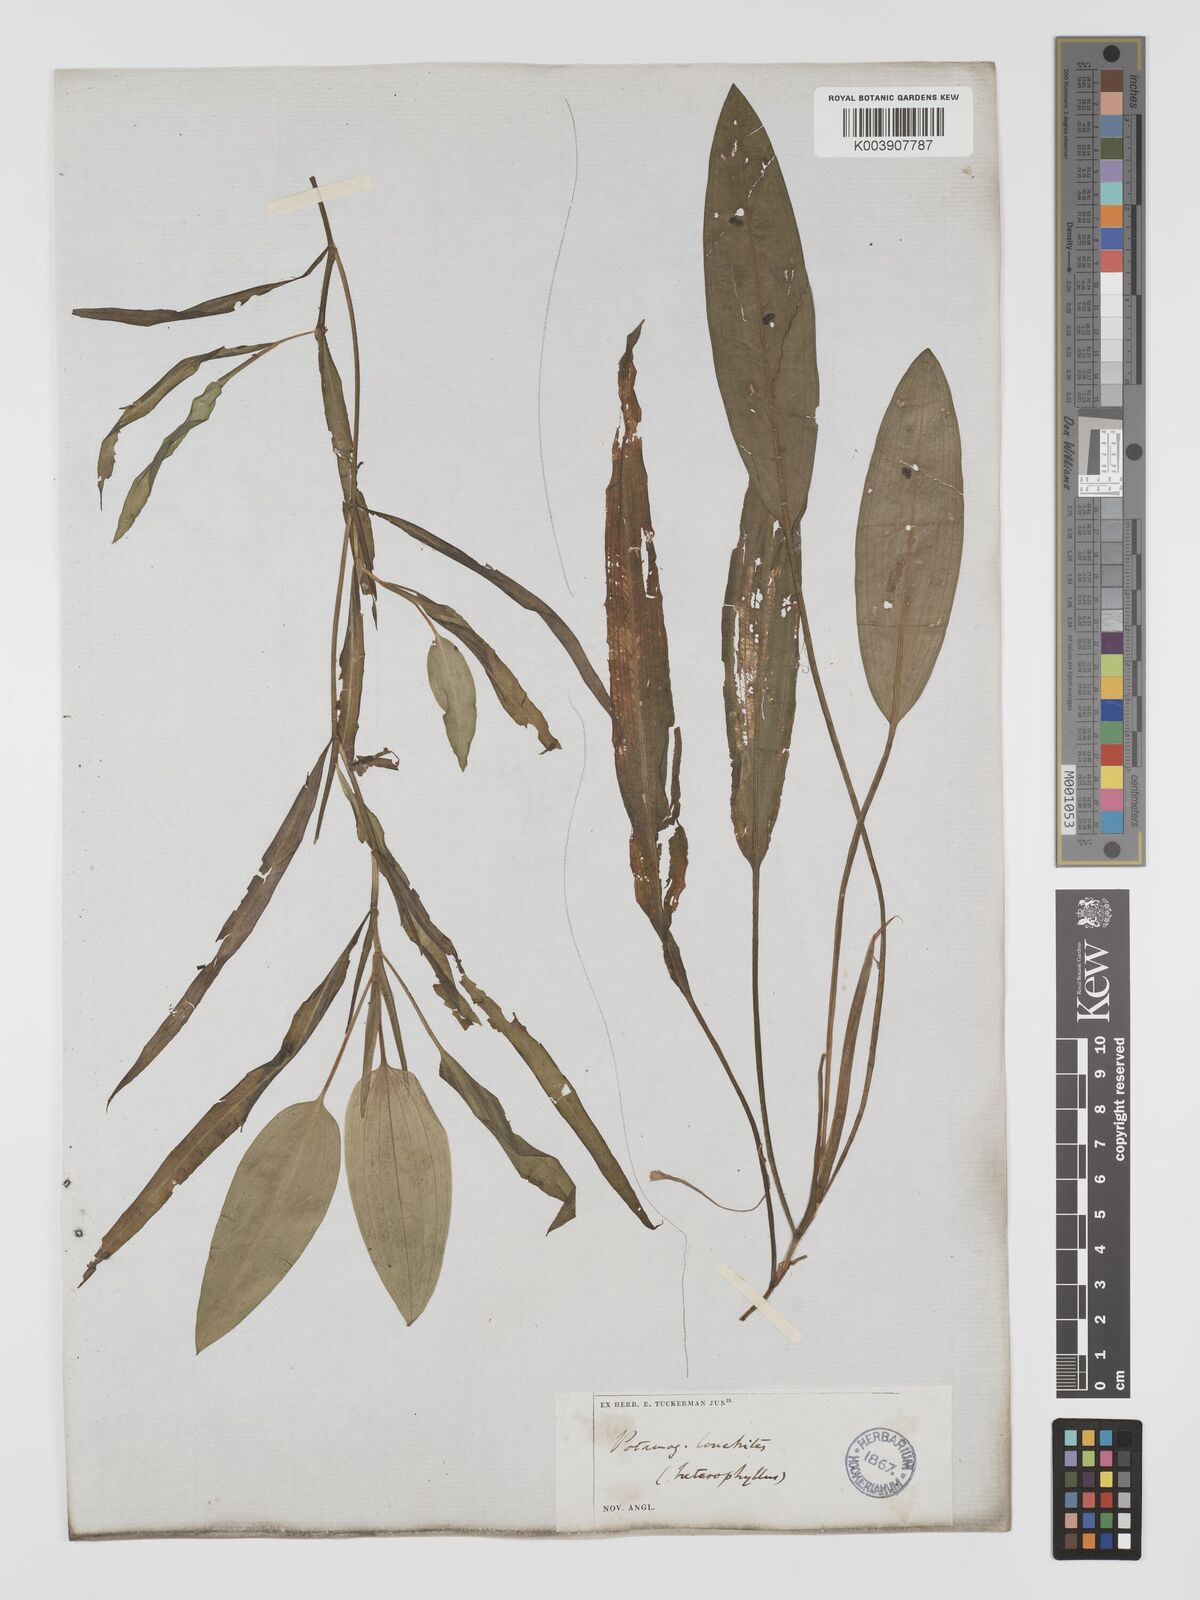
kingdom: Plantae
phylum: Tracheophyta
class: Liliopsida
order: Alismatales
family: Potamogetonaceae
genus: Potamogeton
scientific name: Potamogeton gramineus
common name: Various-leaved pondweed
